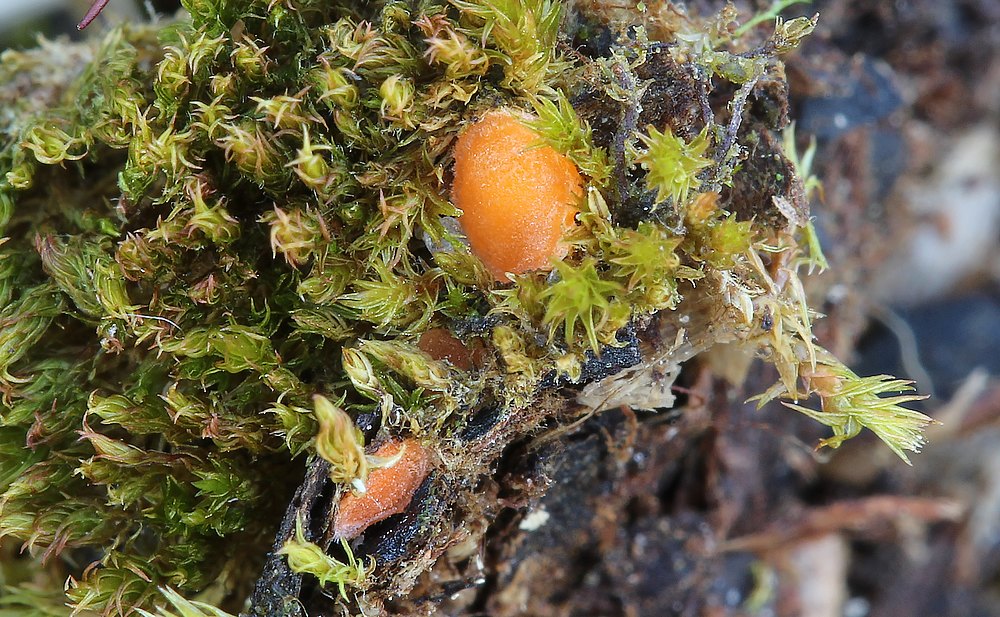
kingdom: Fungi
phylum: Ascomycota
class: Pezizomycetes
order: Pezizales
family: Pyronemataceae
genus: Neottiella
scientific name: Neottiella hetieri
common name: spidshåret mosbæger
